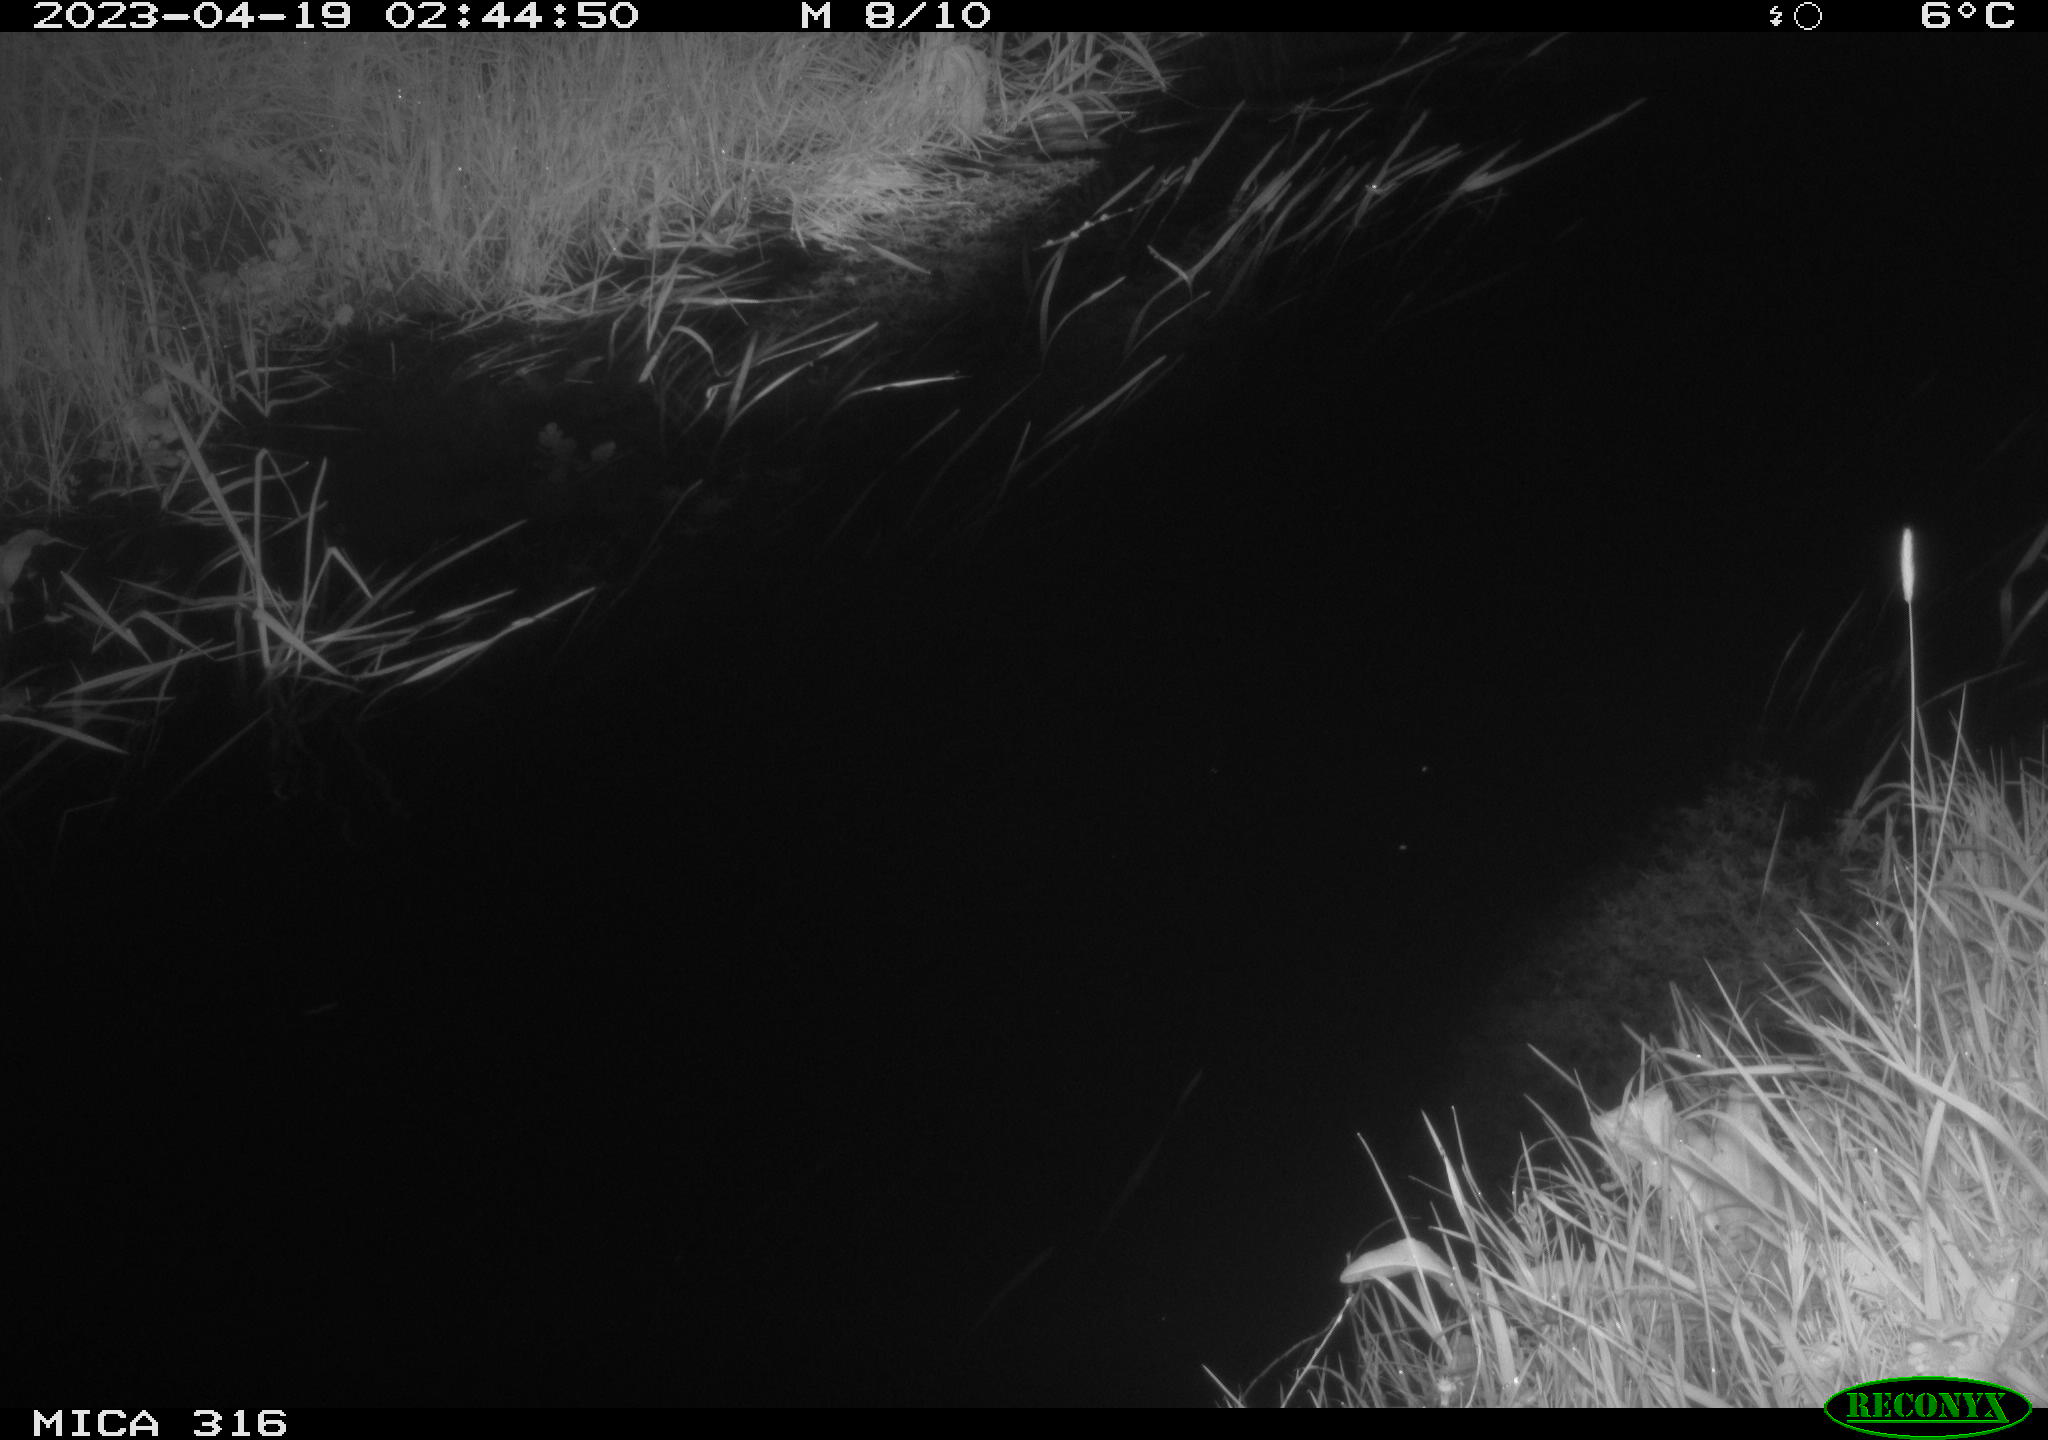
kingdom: Animalia
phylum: Chordata
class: Aves
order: Anseriformes
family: Anatidae
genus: Anas
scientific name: Anas
